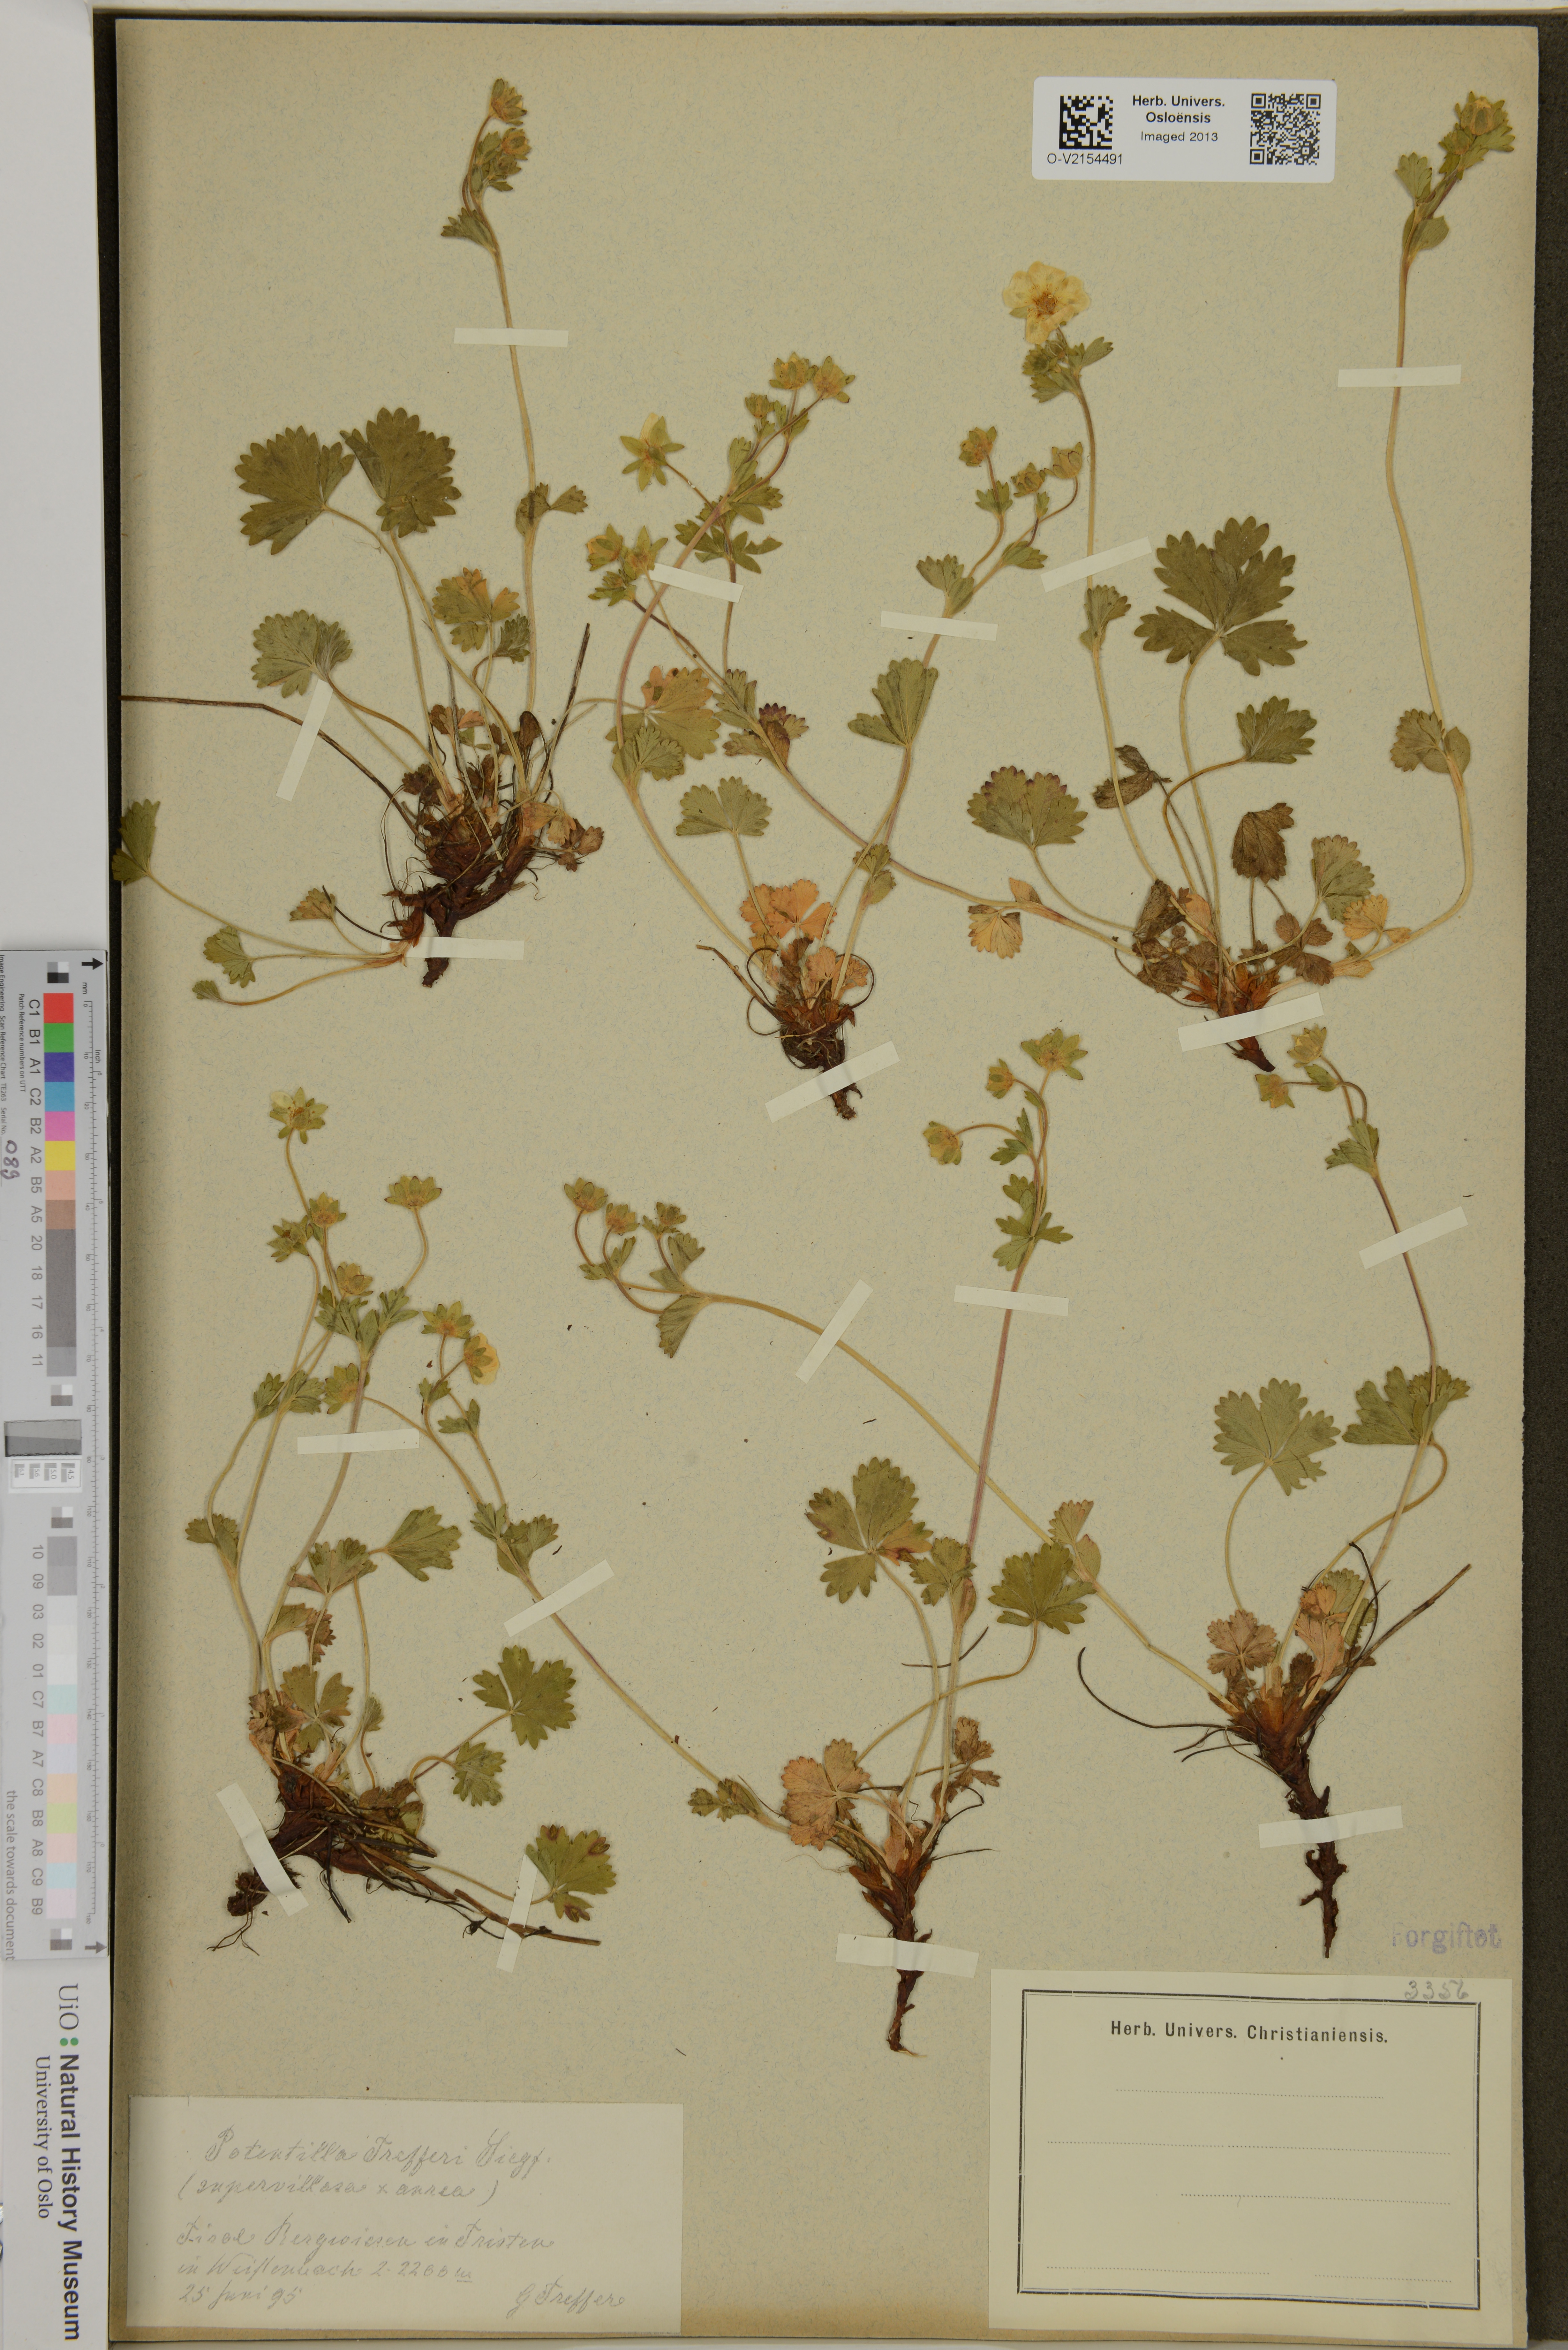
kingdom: Plantae
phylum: Tracheophyta
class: Magnoliopsida
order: Rosales
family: Rosaceae
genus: Potentilla
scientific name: Potentilla trefferi
